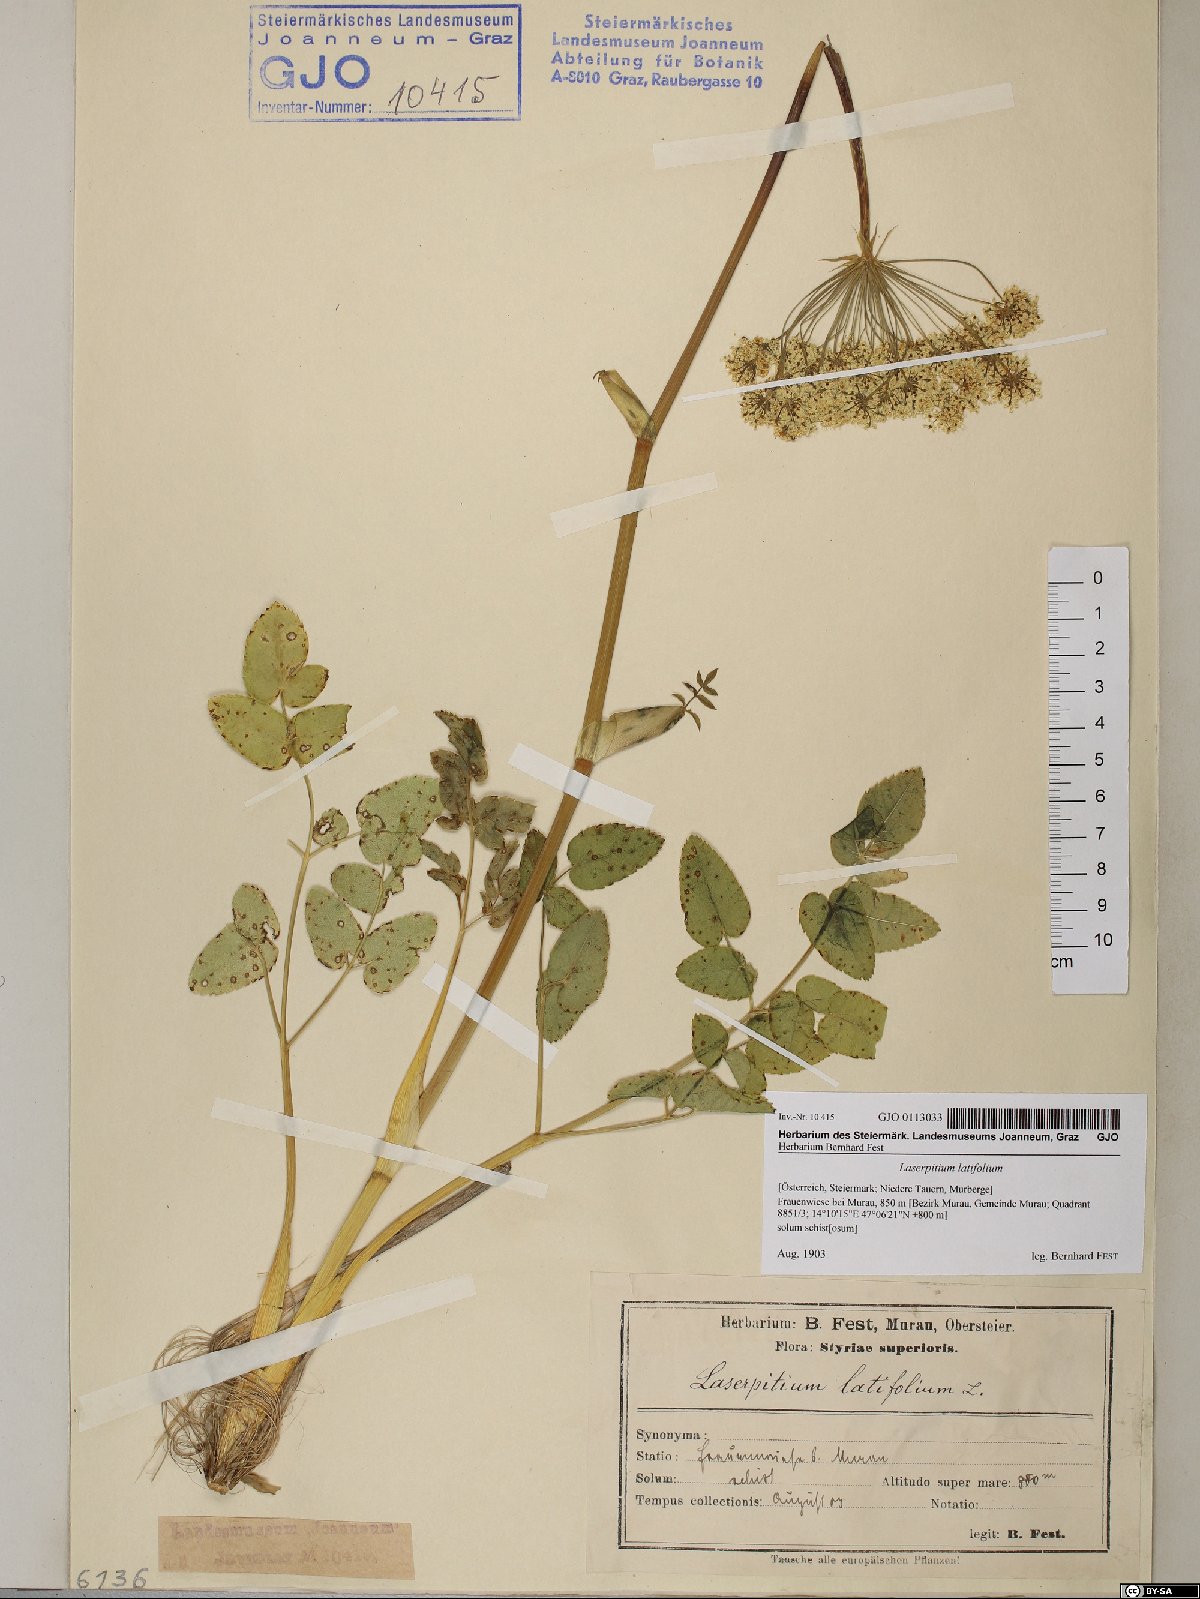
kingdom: Plantae
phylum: Tracheophyta
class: Magnoliopsida
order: Apiales
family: Apiaceae
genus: Laserpitium
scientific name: Laserpitium latifolium
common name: Broadleaf sermountain
